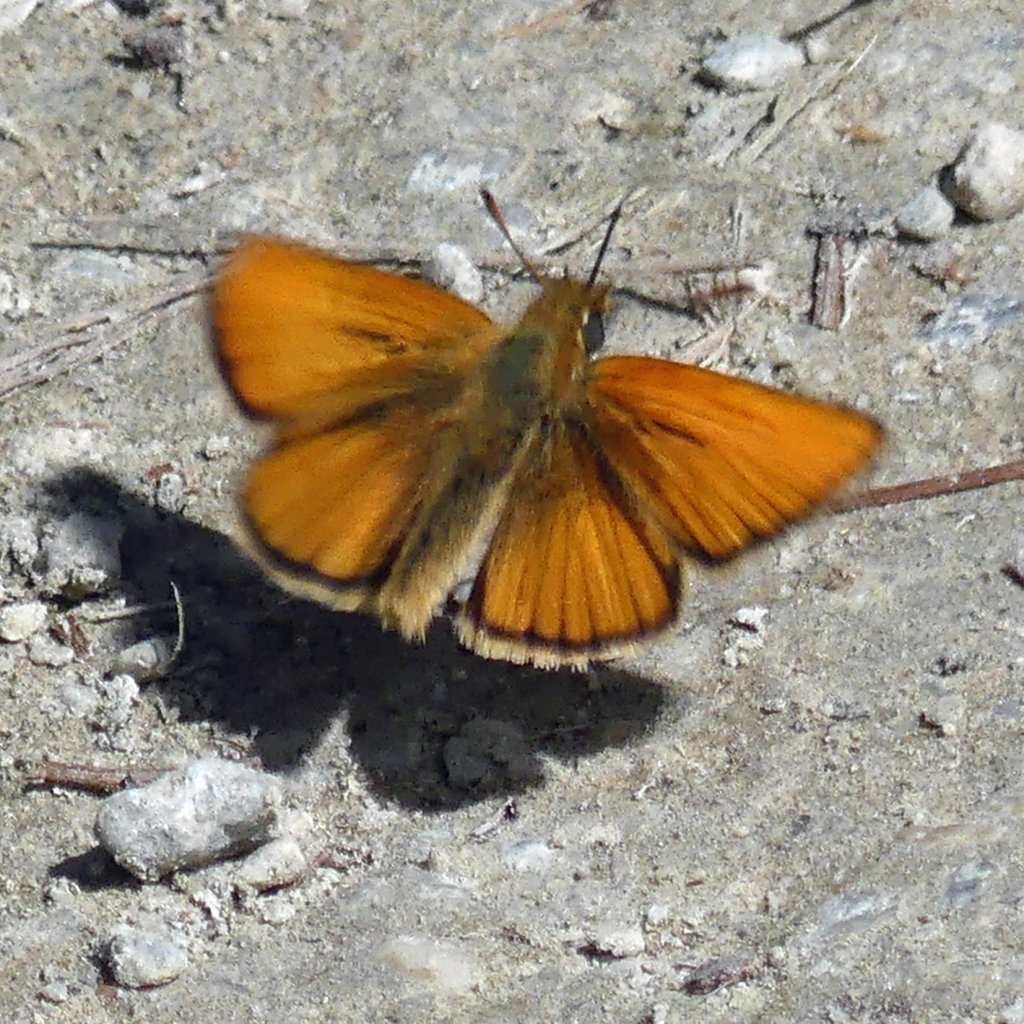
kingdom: Animalia
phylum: Arthropoda
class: Insecta
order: Lepidoptera
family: Hesperiidae
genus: Thymelicus
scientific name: Thymelicus lineola
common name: European Skipper
